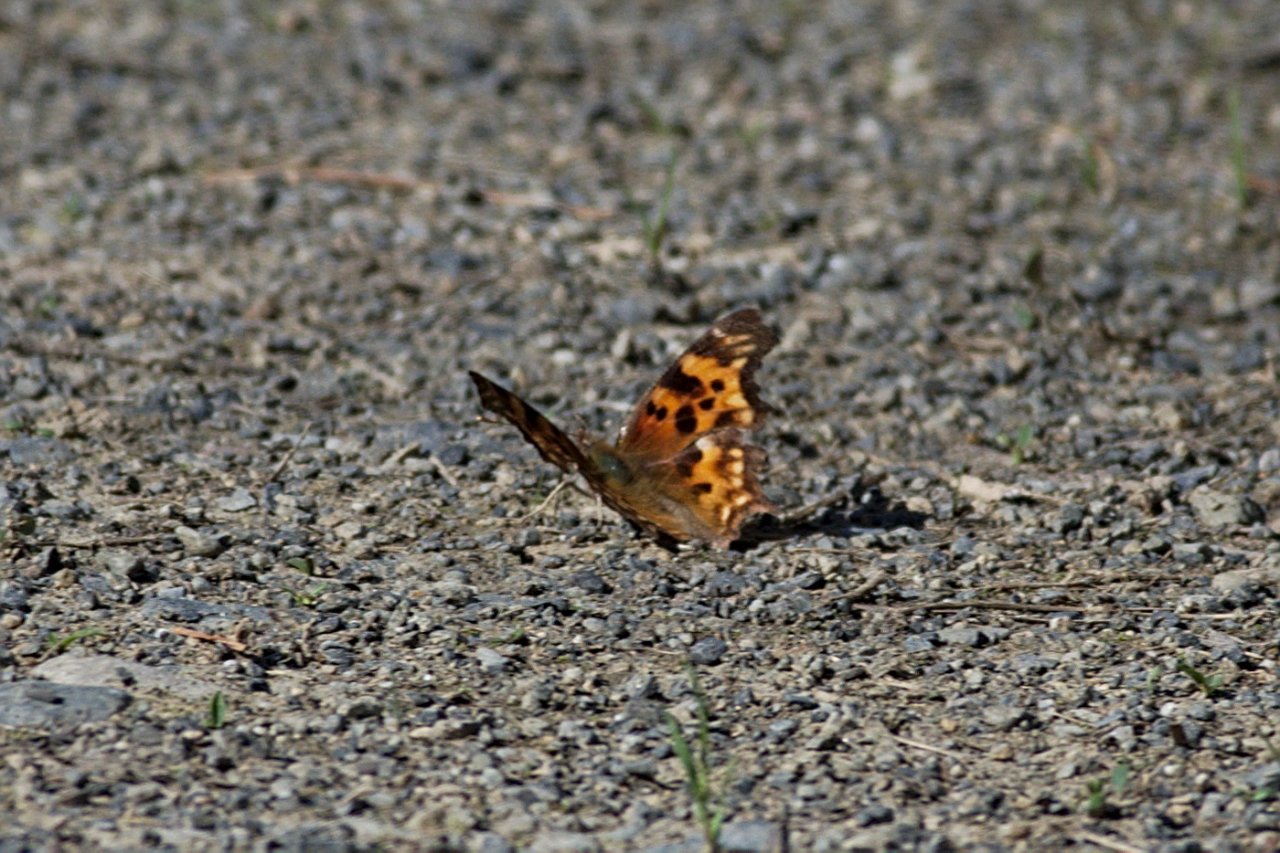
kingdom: Animalia
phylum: Arthropoda
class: Insecta
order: Lepidoptera
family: Nymphalidae
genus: Polygonia
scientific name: Polygonia faunus
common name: Green Comma
